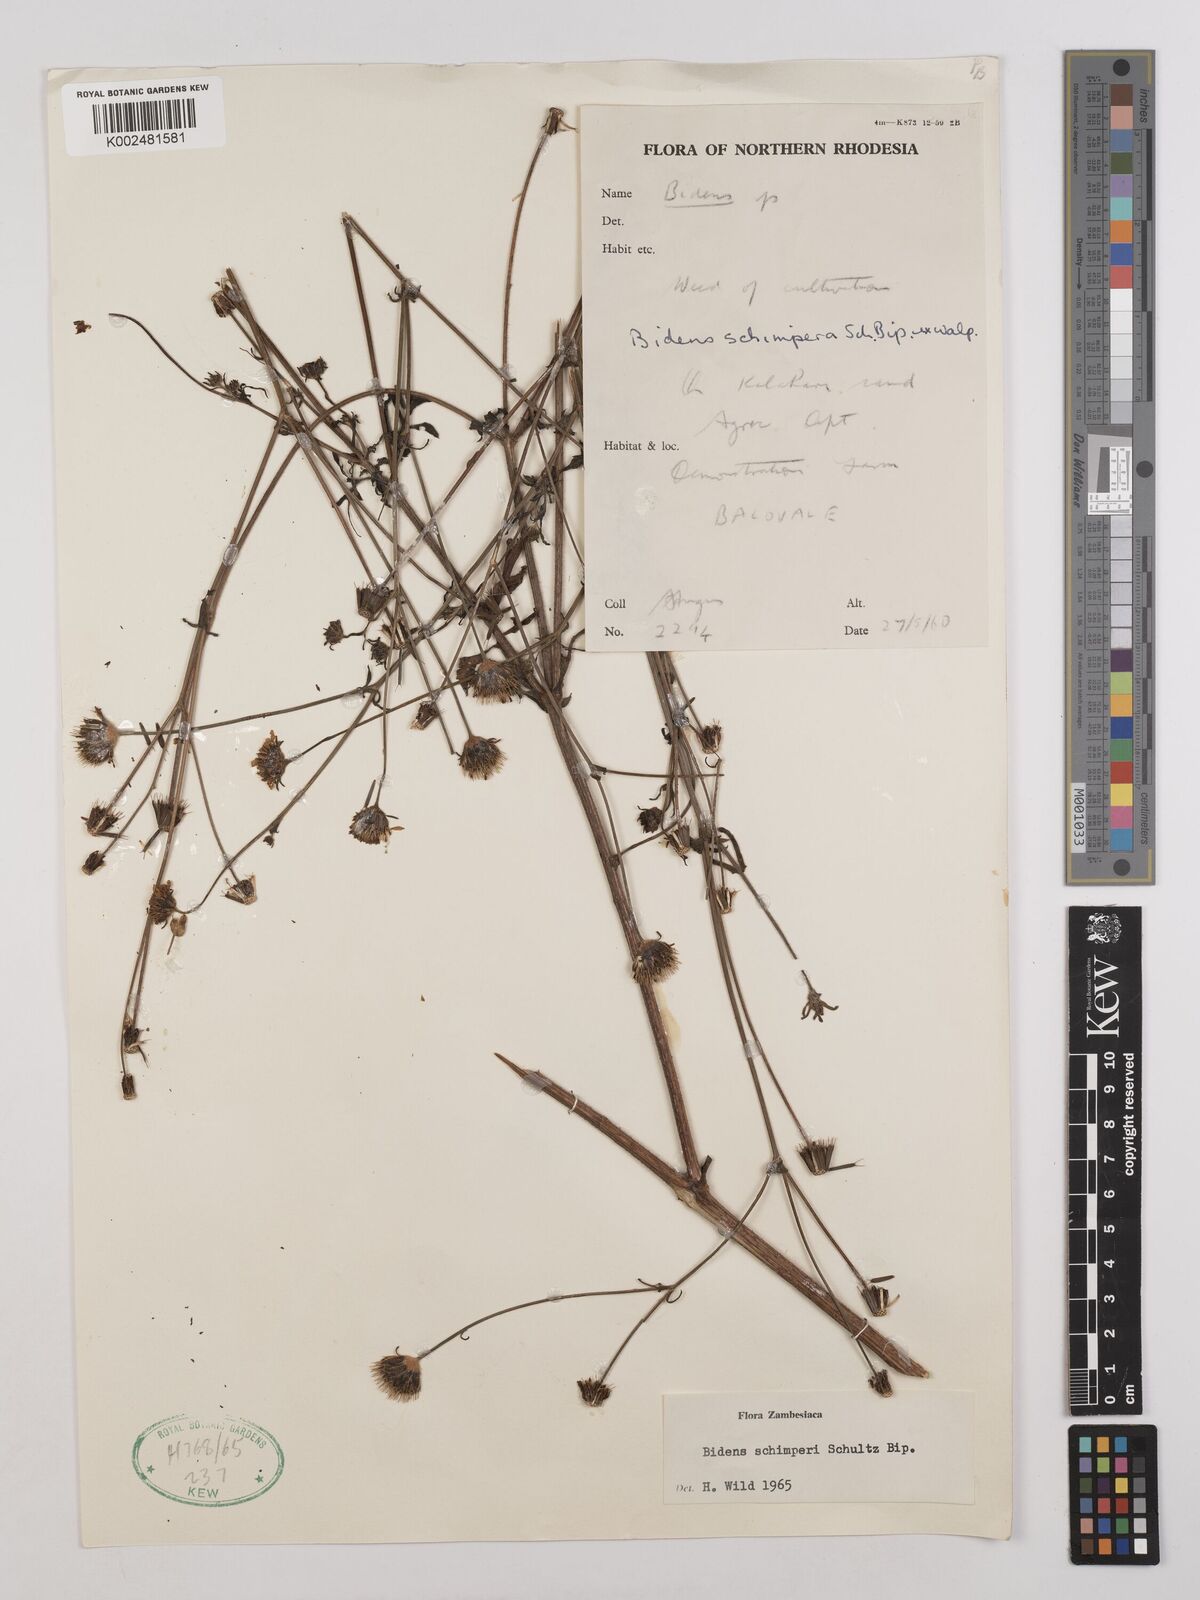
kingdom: Plantae
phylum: Tracheophyta
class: Magnoliopsida
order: Asterales
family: Asteraceae
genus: Bidens
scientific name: Bidens schimperi
